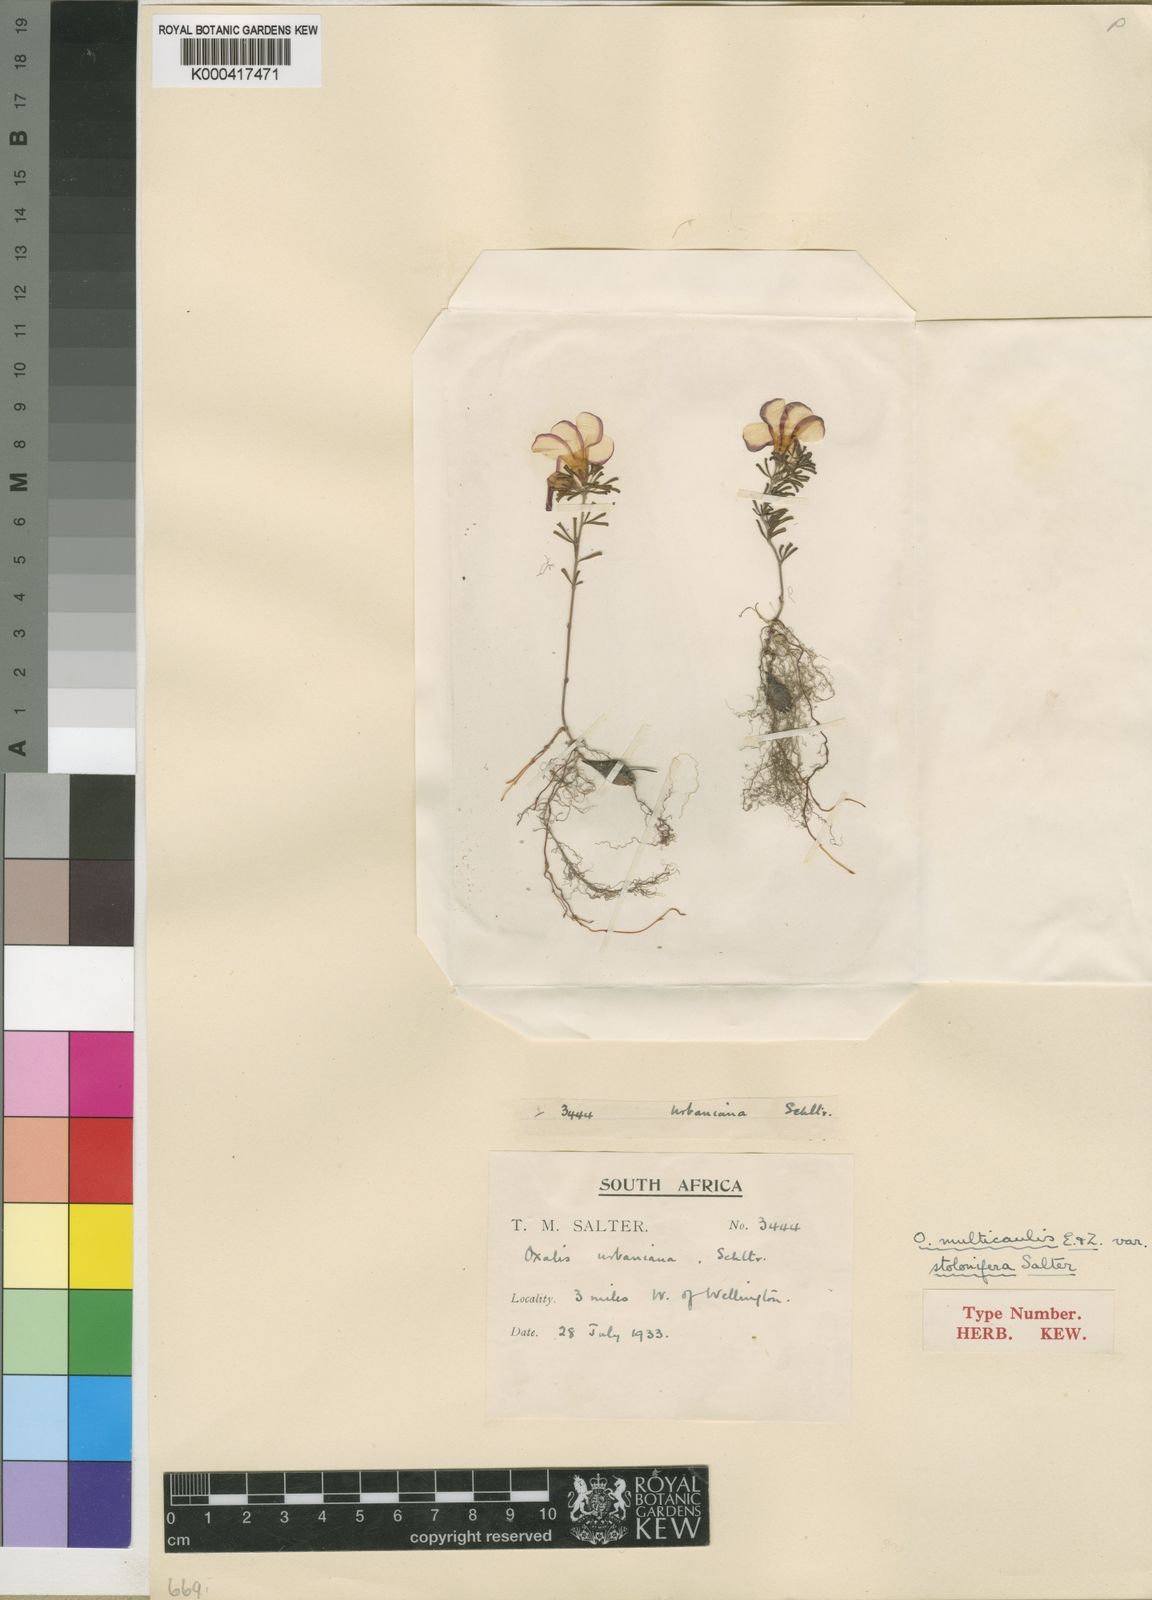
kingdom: Plantae
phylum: Tracheophyta
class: Magnoliopsida
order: Oxalidales
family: Oxalidaceae
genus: Oxalis
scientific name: Oxalis multicaulis
